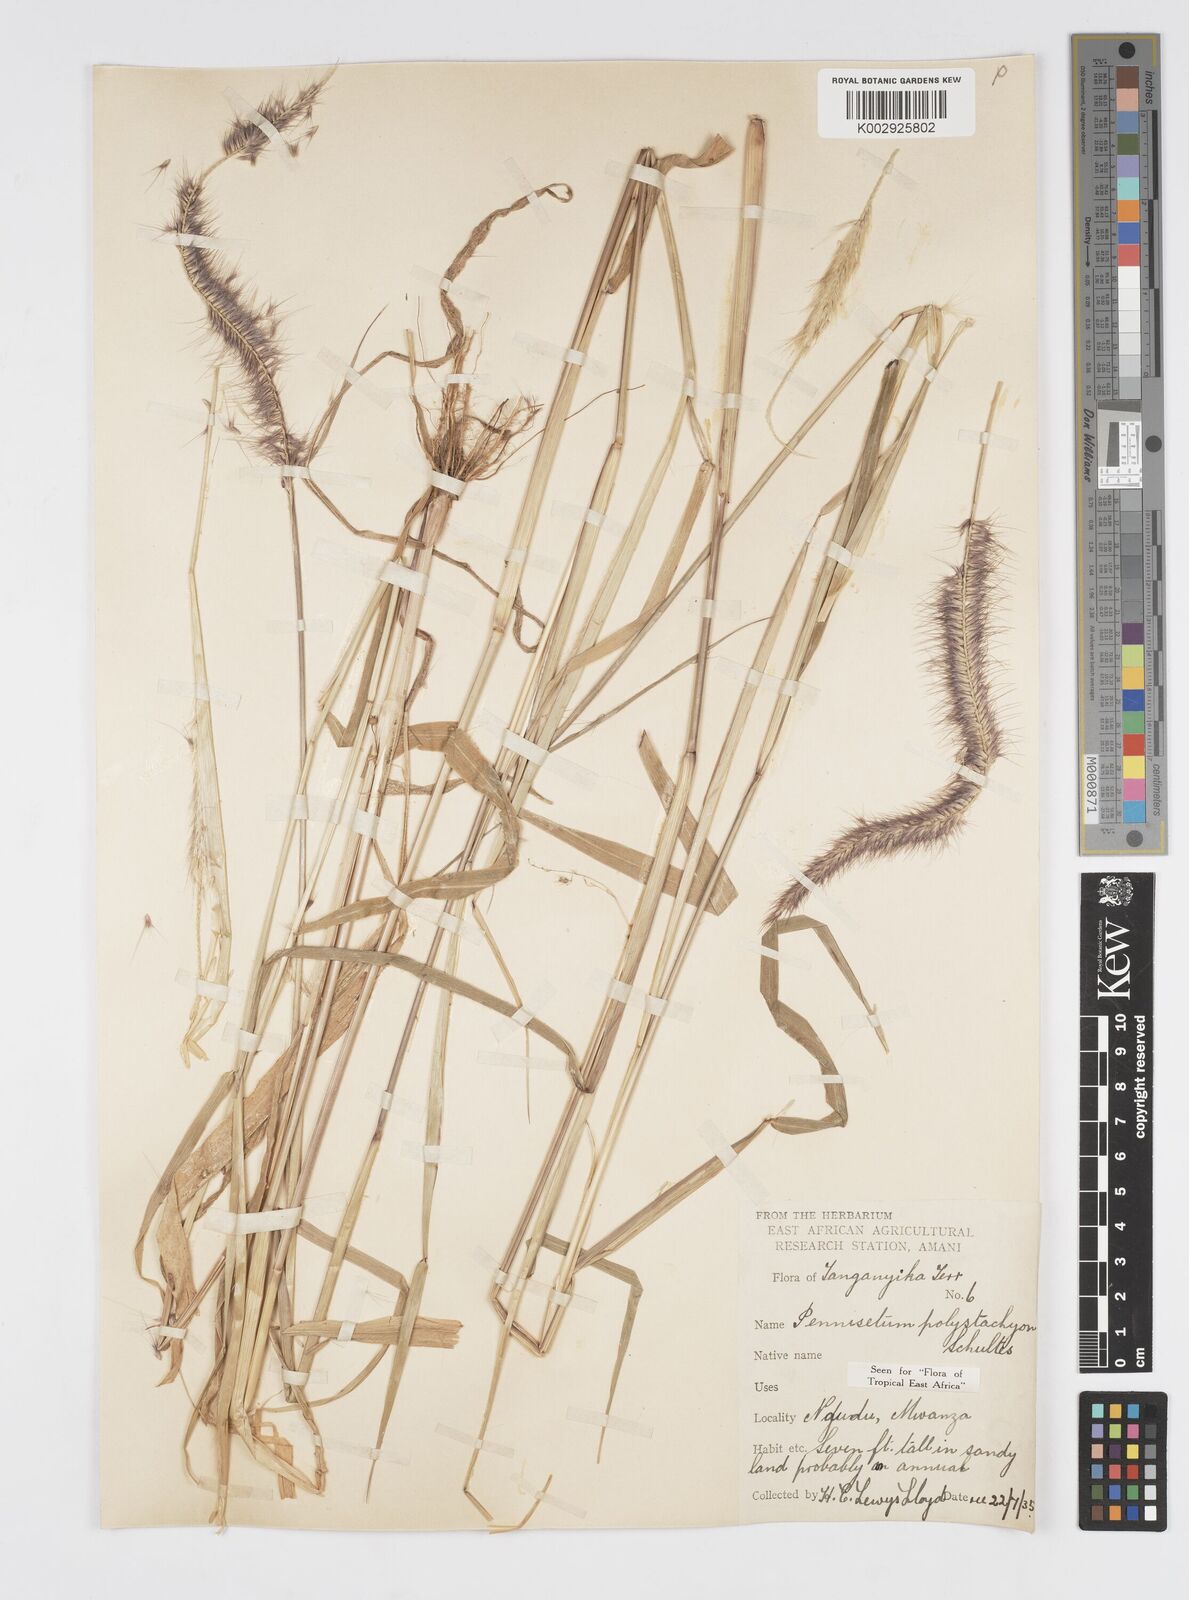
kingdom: Plantae
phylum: Tracheophyta
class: Liliopsida
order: Poales
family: Poaceae
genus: Setaria
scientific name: Setaria parviflora
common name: Knotroot bristle-grass
